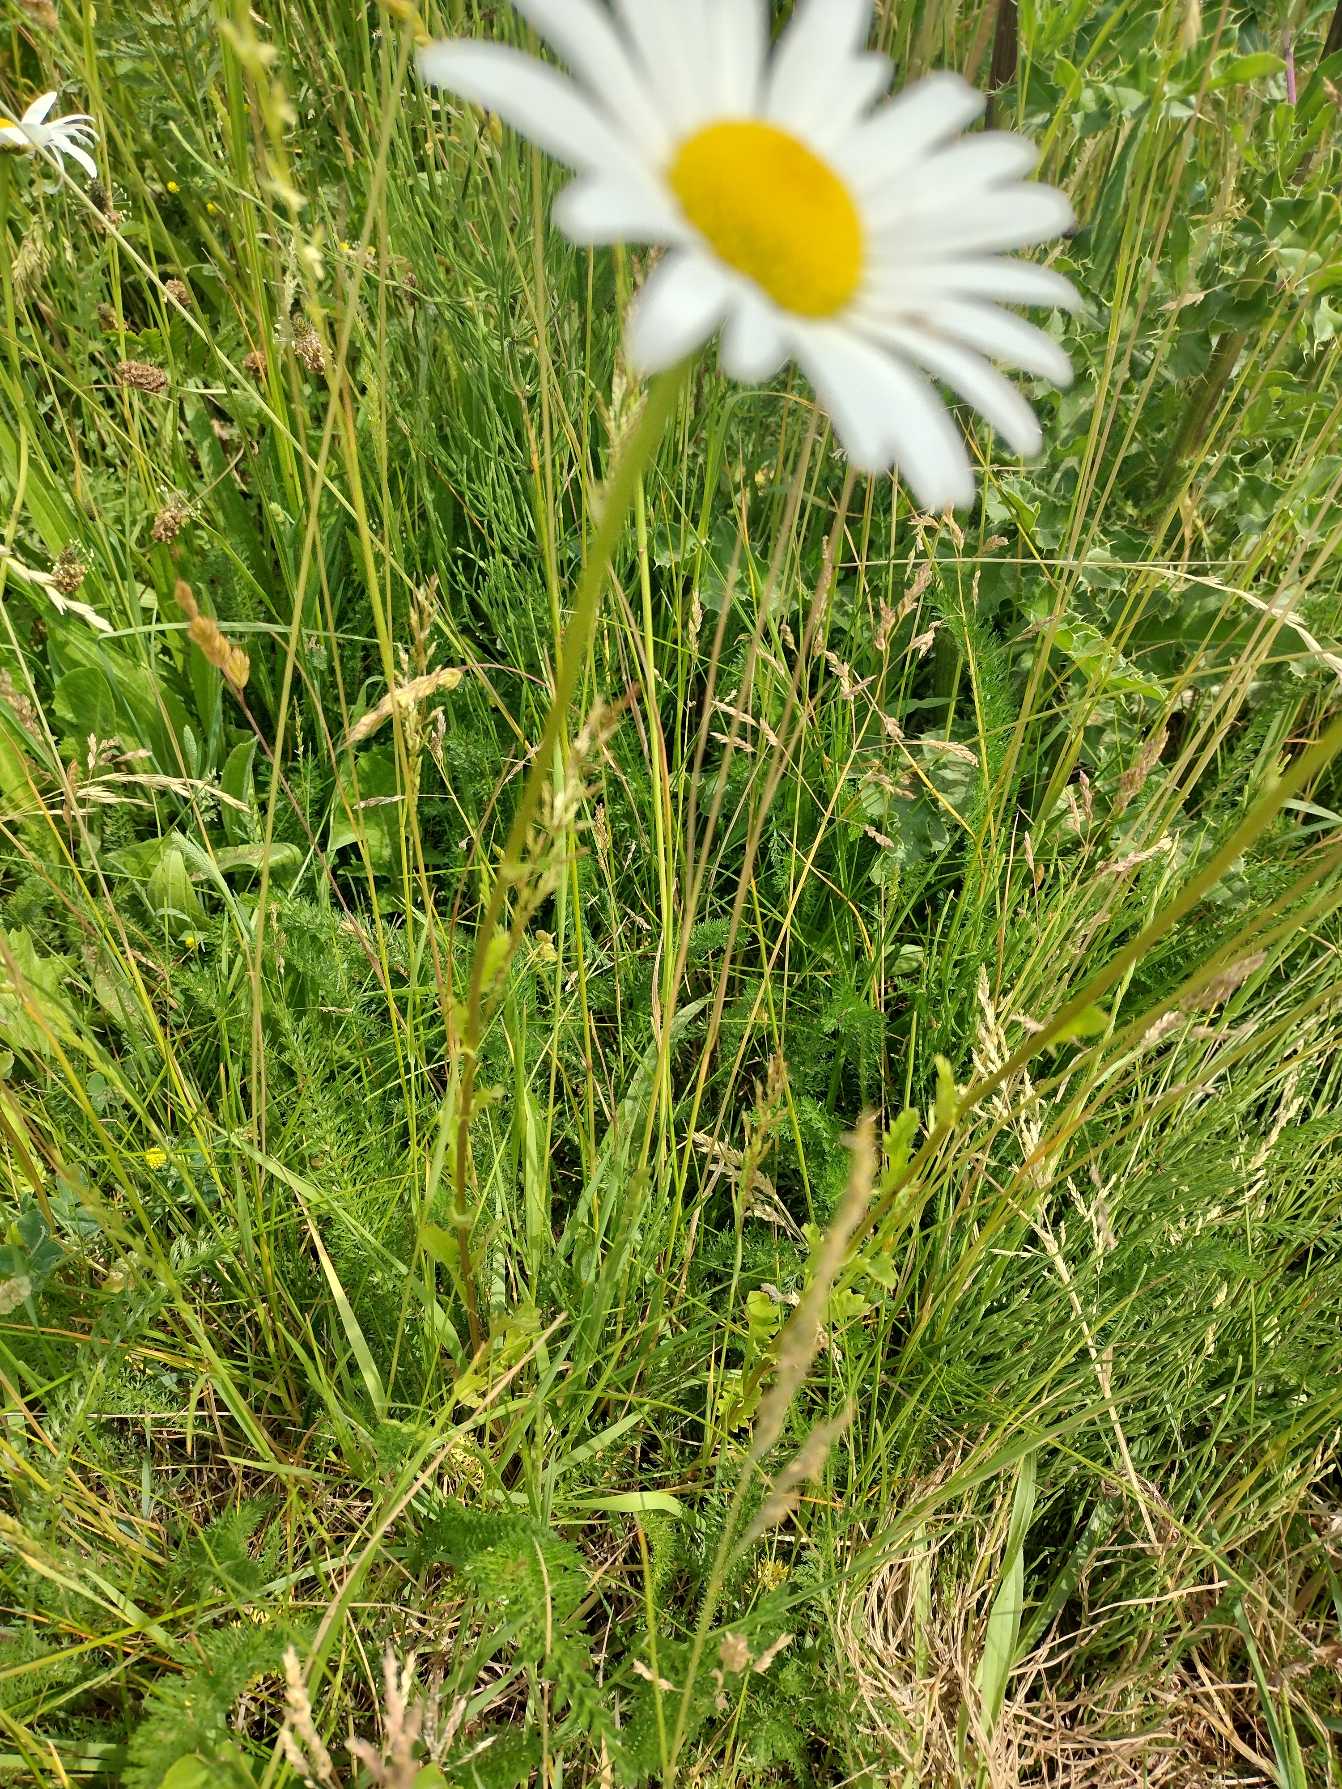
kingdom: Plantae
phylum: Tracheophyta
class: Magnoliopsida
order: Asterales
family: Asteraceae
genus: Leucanthemum
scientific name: Leucanthemum vulgare
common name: Hvid okseøje
